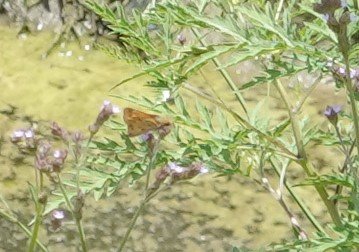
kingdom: Animalia
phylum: Arthropoda
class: Insecta
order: Lepidoptera
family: Hesperiidae
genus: Hylephila
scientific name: Hylephila phyleus
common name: Fiery Skipper
